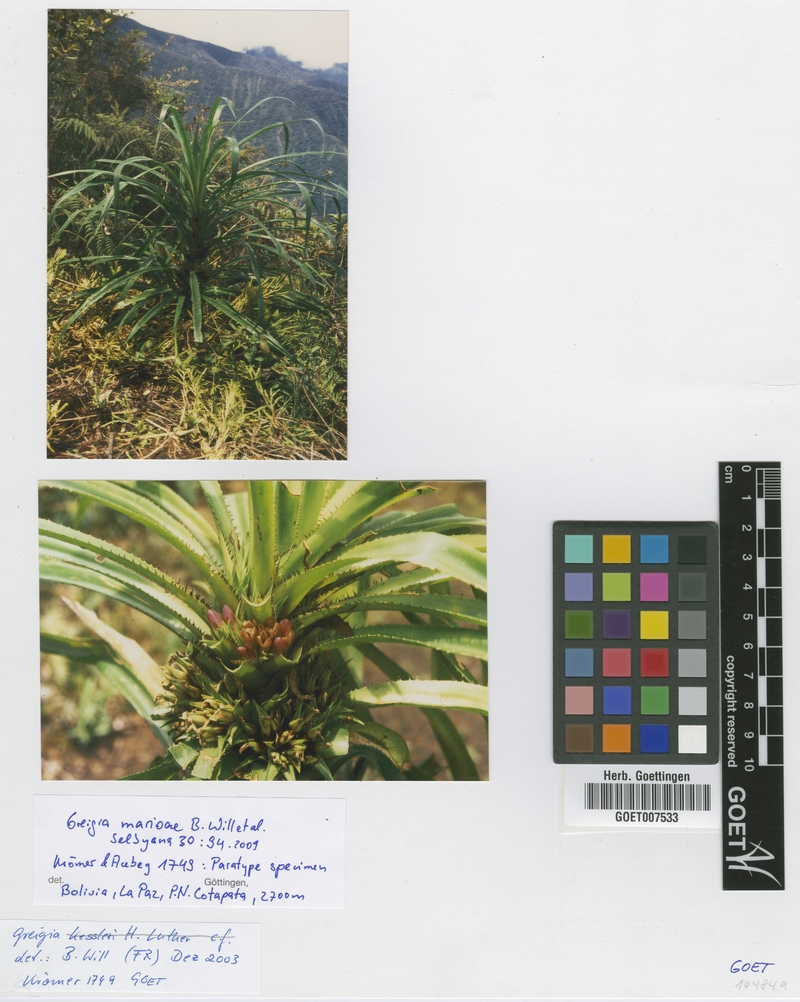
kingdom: Plantae
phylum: Tracheophyta
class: Liliopsida
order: Poales
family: Bromeliaceae
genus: Greigia
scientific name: Greigia marioi
